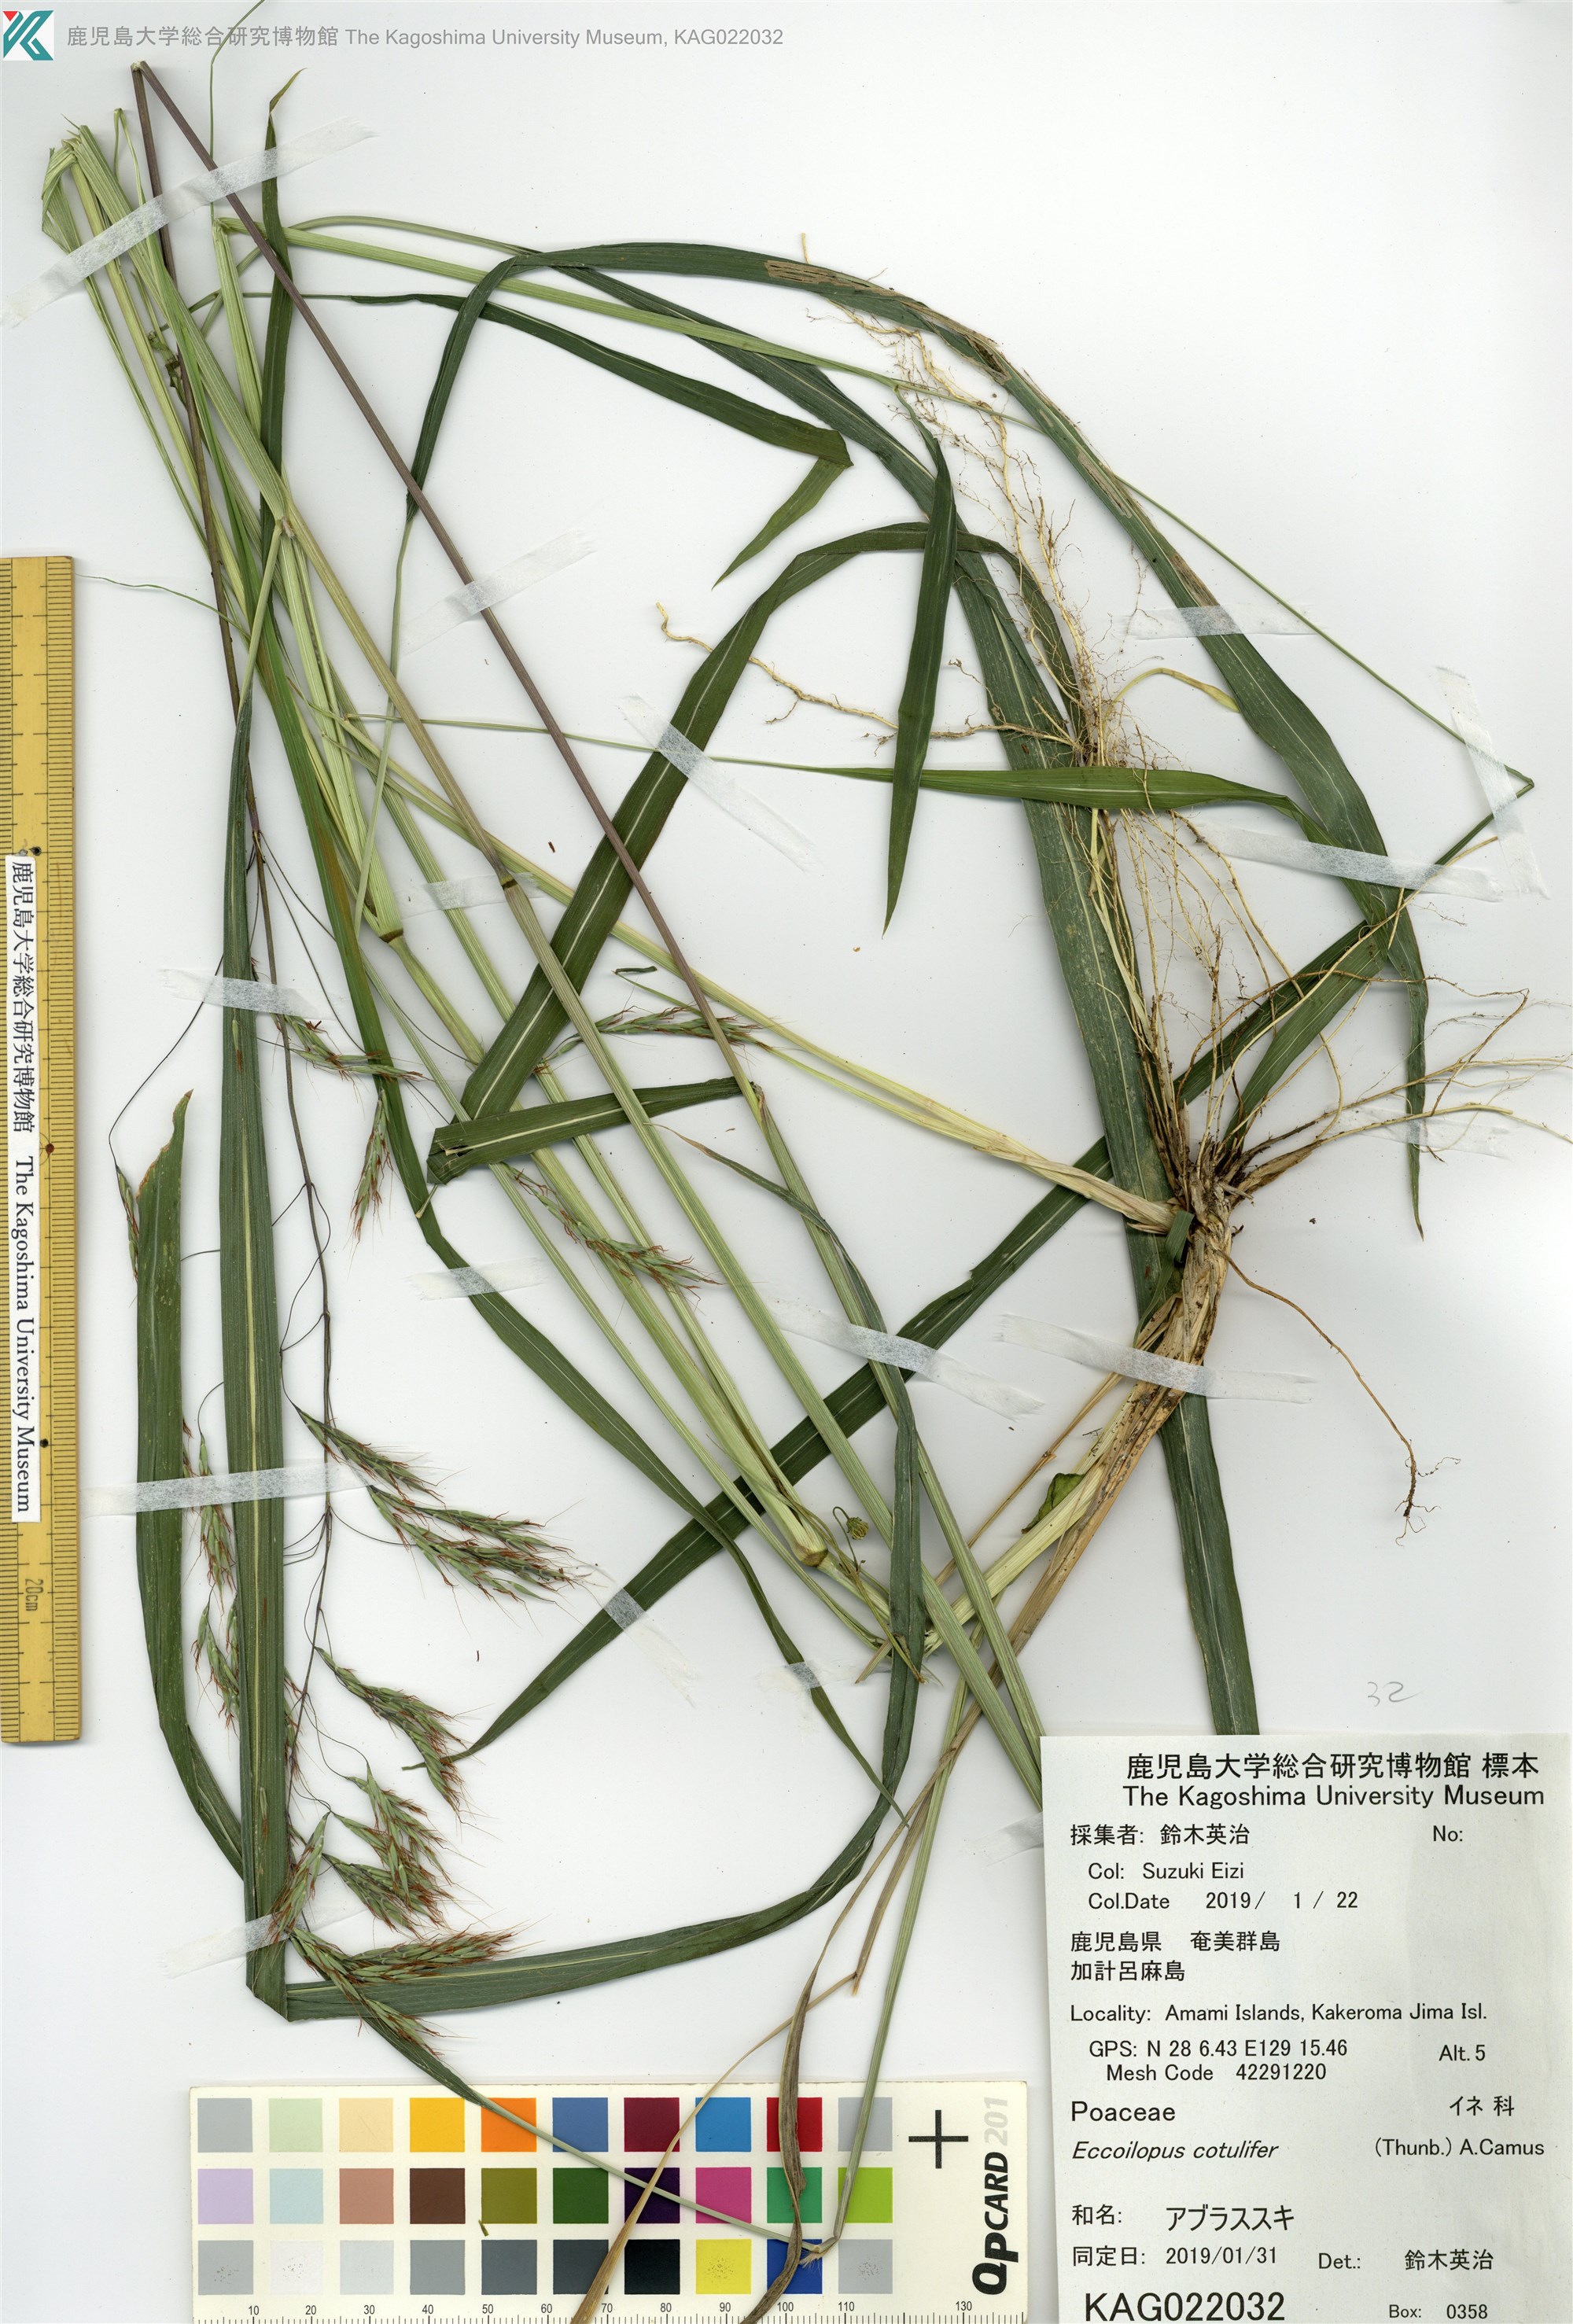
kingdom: Plantae
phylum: Tracheophyta
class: Liliopsida
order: Poales
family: Poaceae
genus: Spodiopogon
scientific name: Spodiopogon cotulifer
